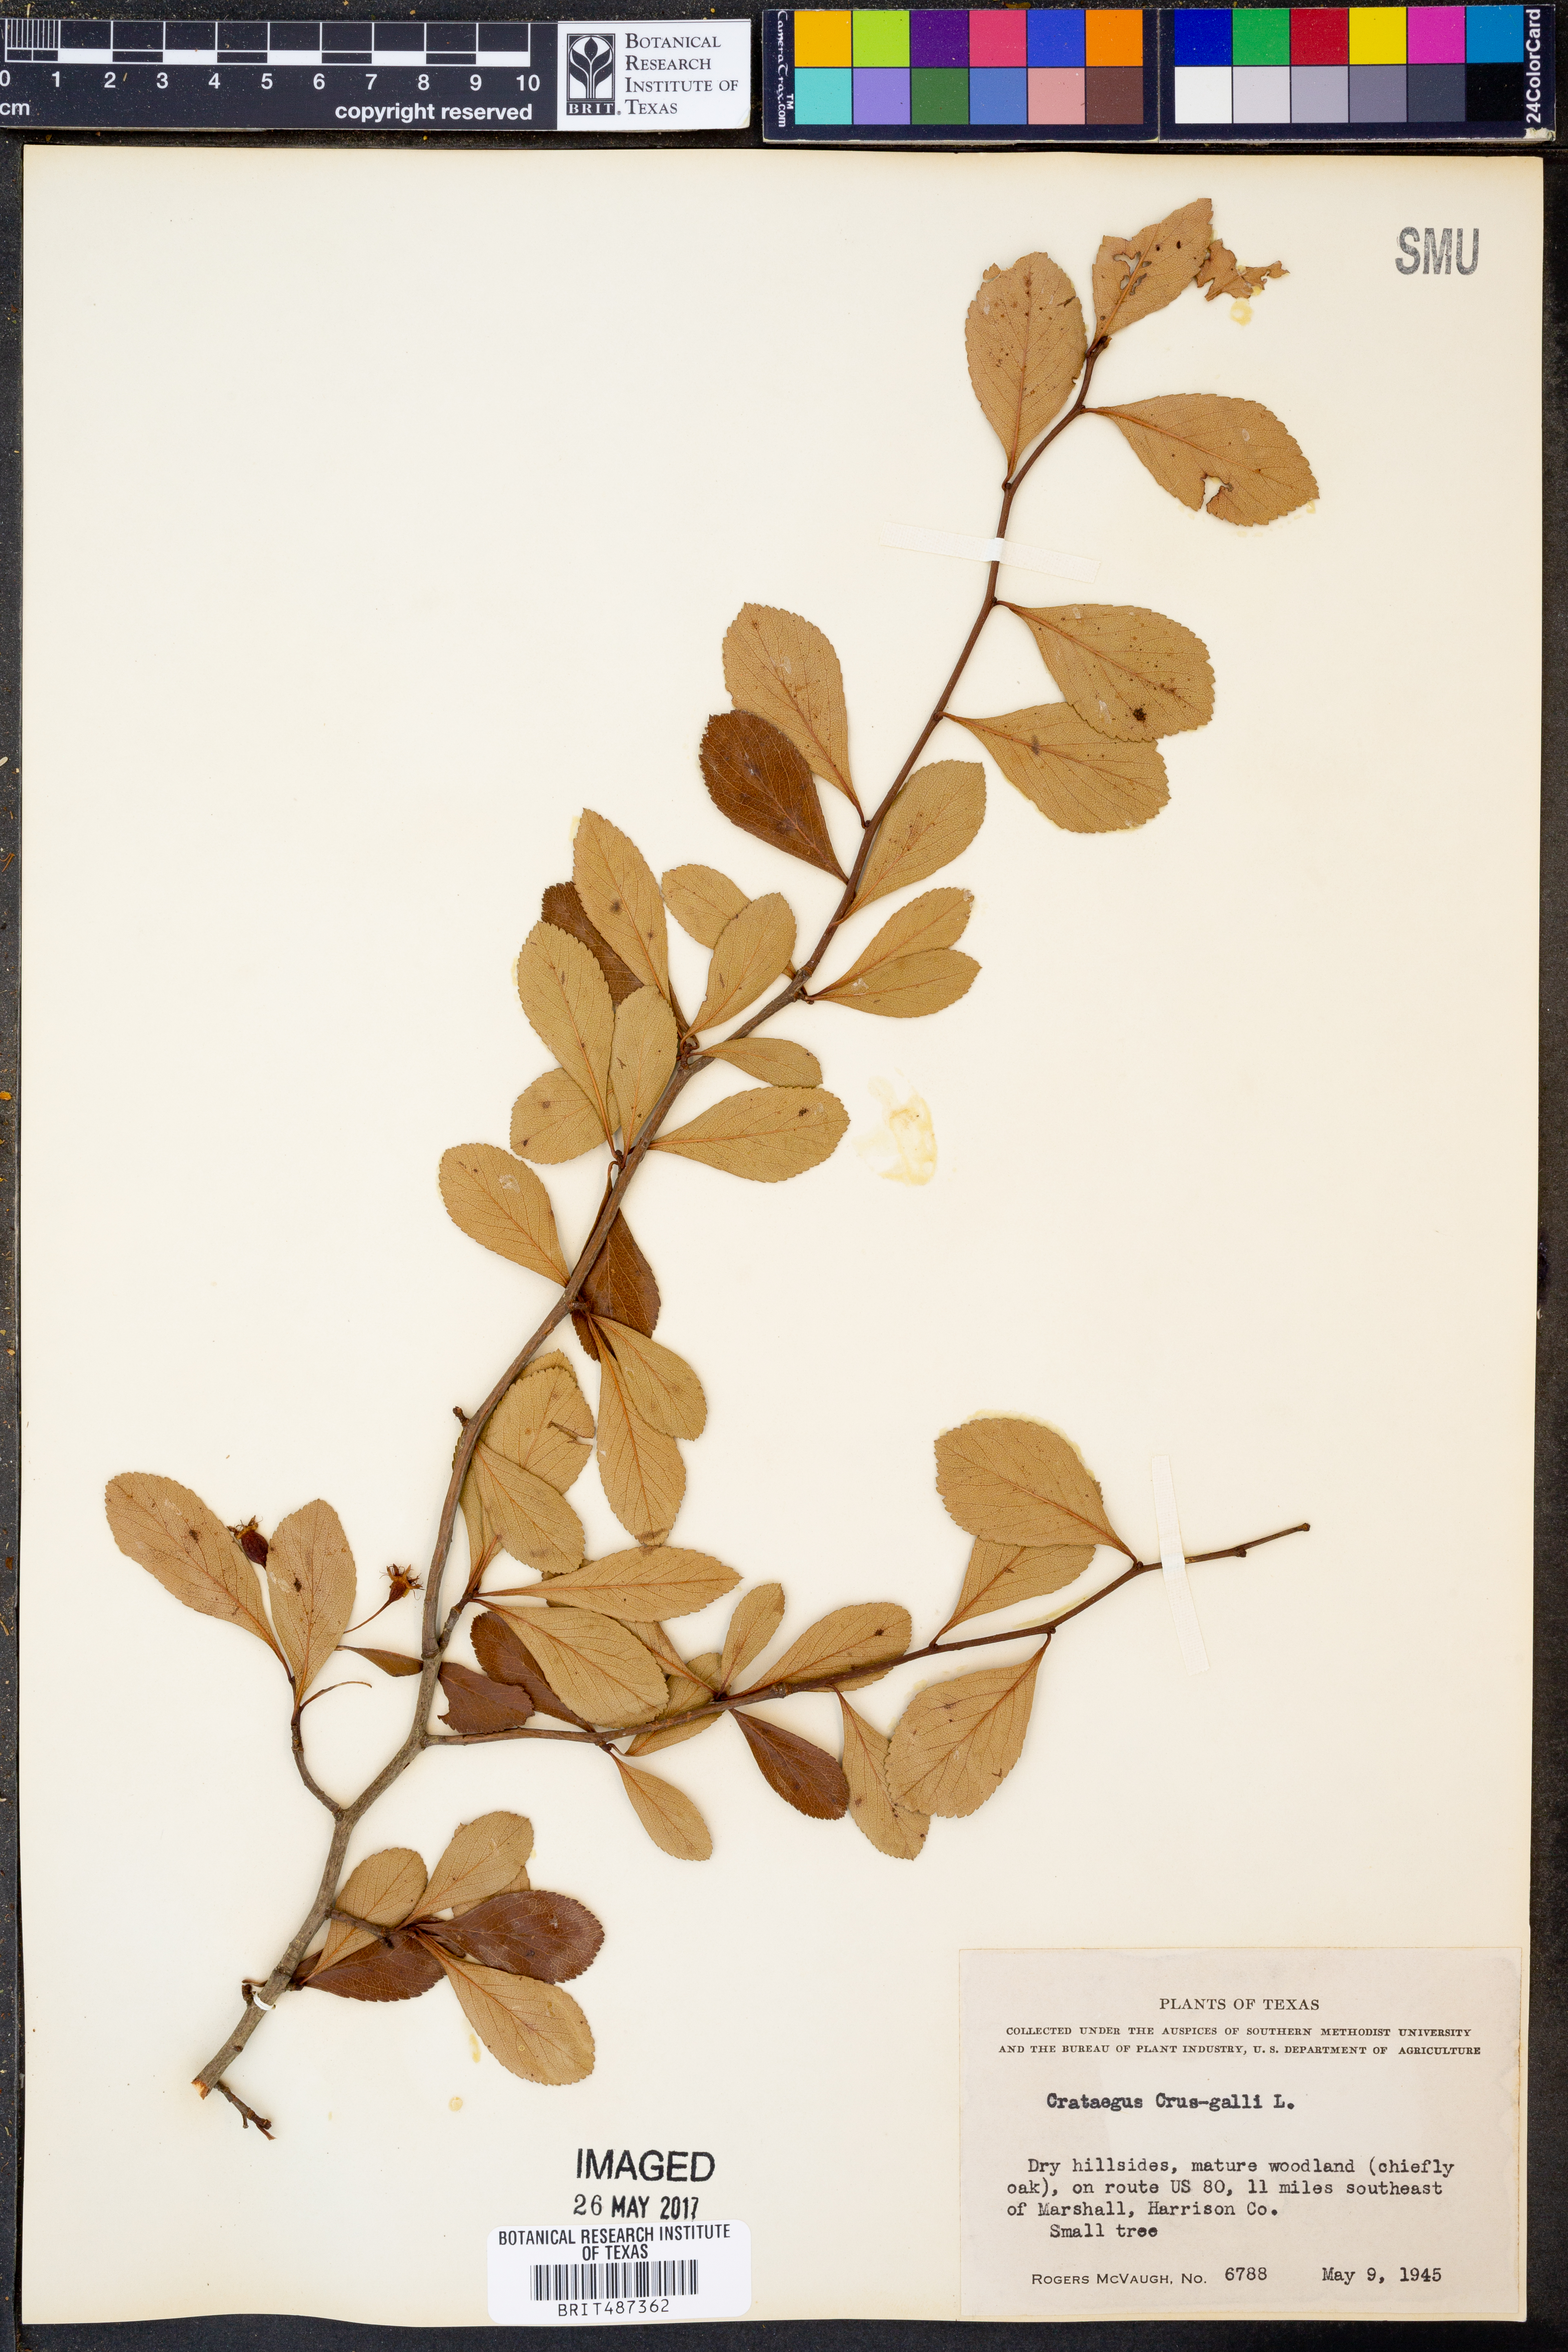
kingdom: Plantae
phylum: Tracheophyta
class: Magnoliopsida
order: Rosales
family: Rosaceae
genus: Crataegus
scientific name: Crataegus crus-galli
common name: Cockspurthorn
